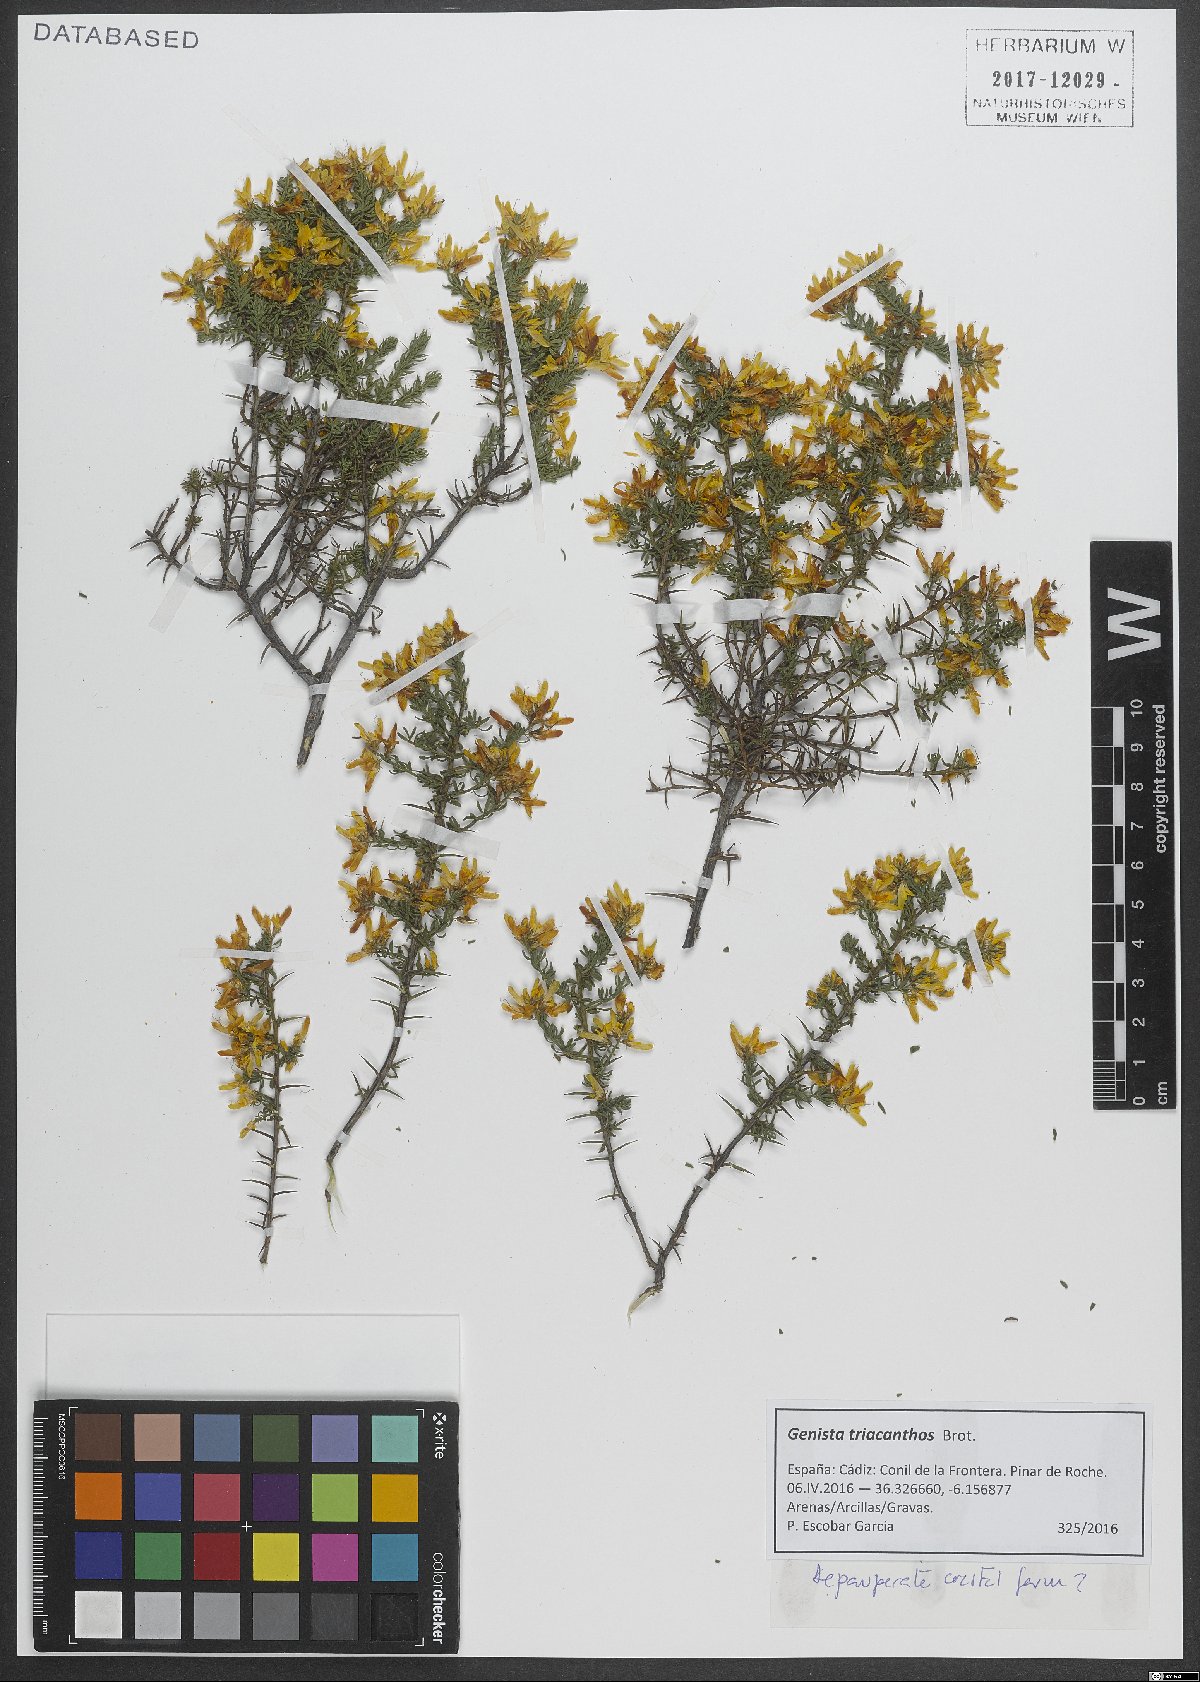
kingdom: Plantae
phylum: Tracheophyta
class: Magnoliopsida
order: Fabales
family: Fabaceae
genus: Genista
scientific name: Genista triacanthos
